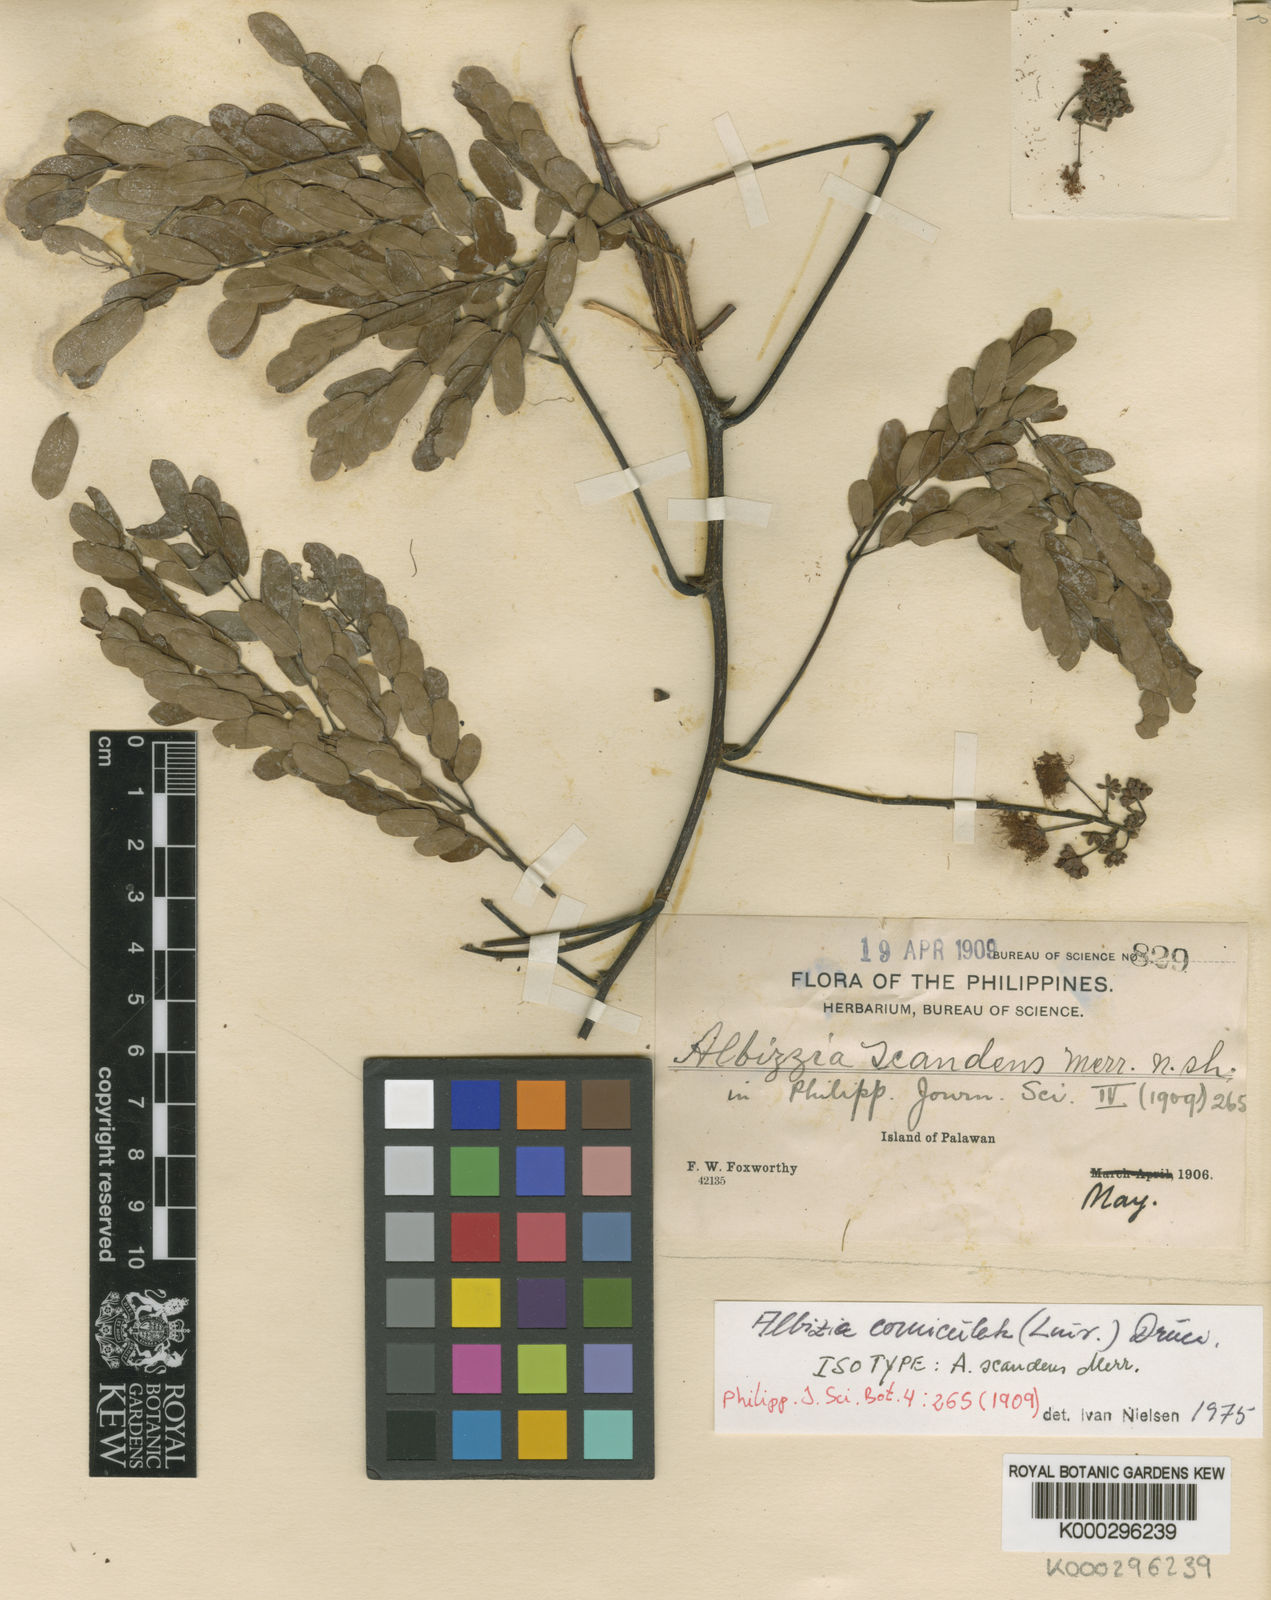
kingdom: Plantae
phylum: Tracheophyta
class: Magnoliopsida
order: Fabales
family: Fabaceae
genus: Albizia
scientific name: Albizia corniculata
